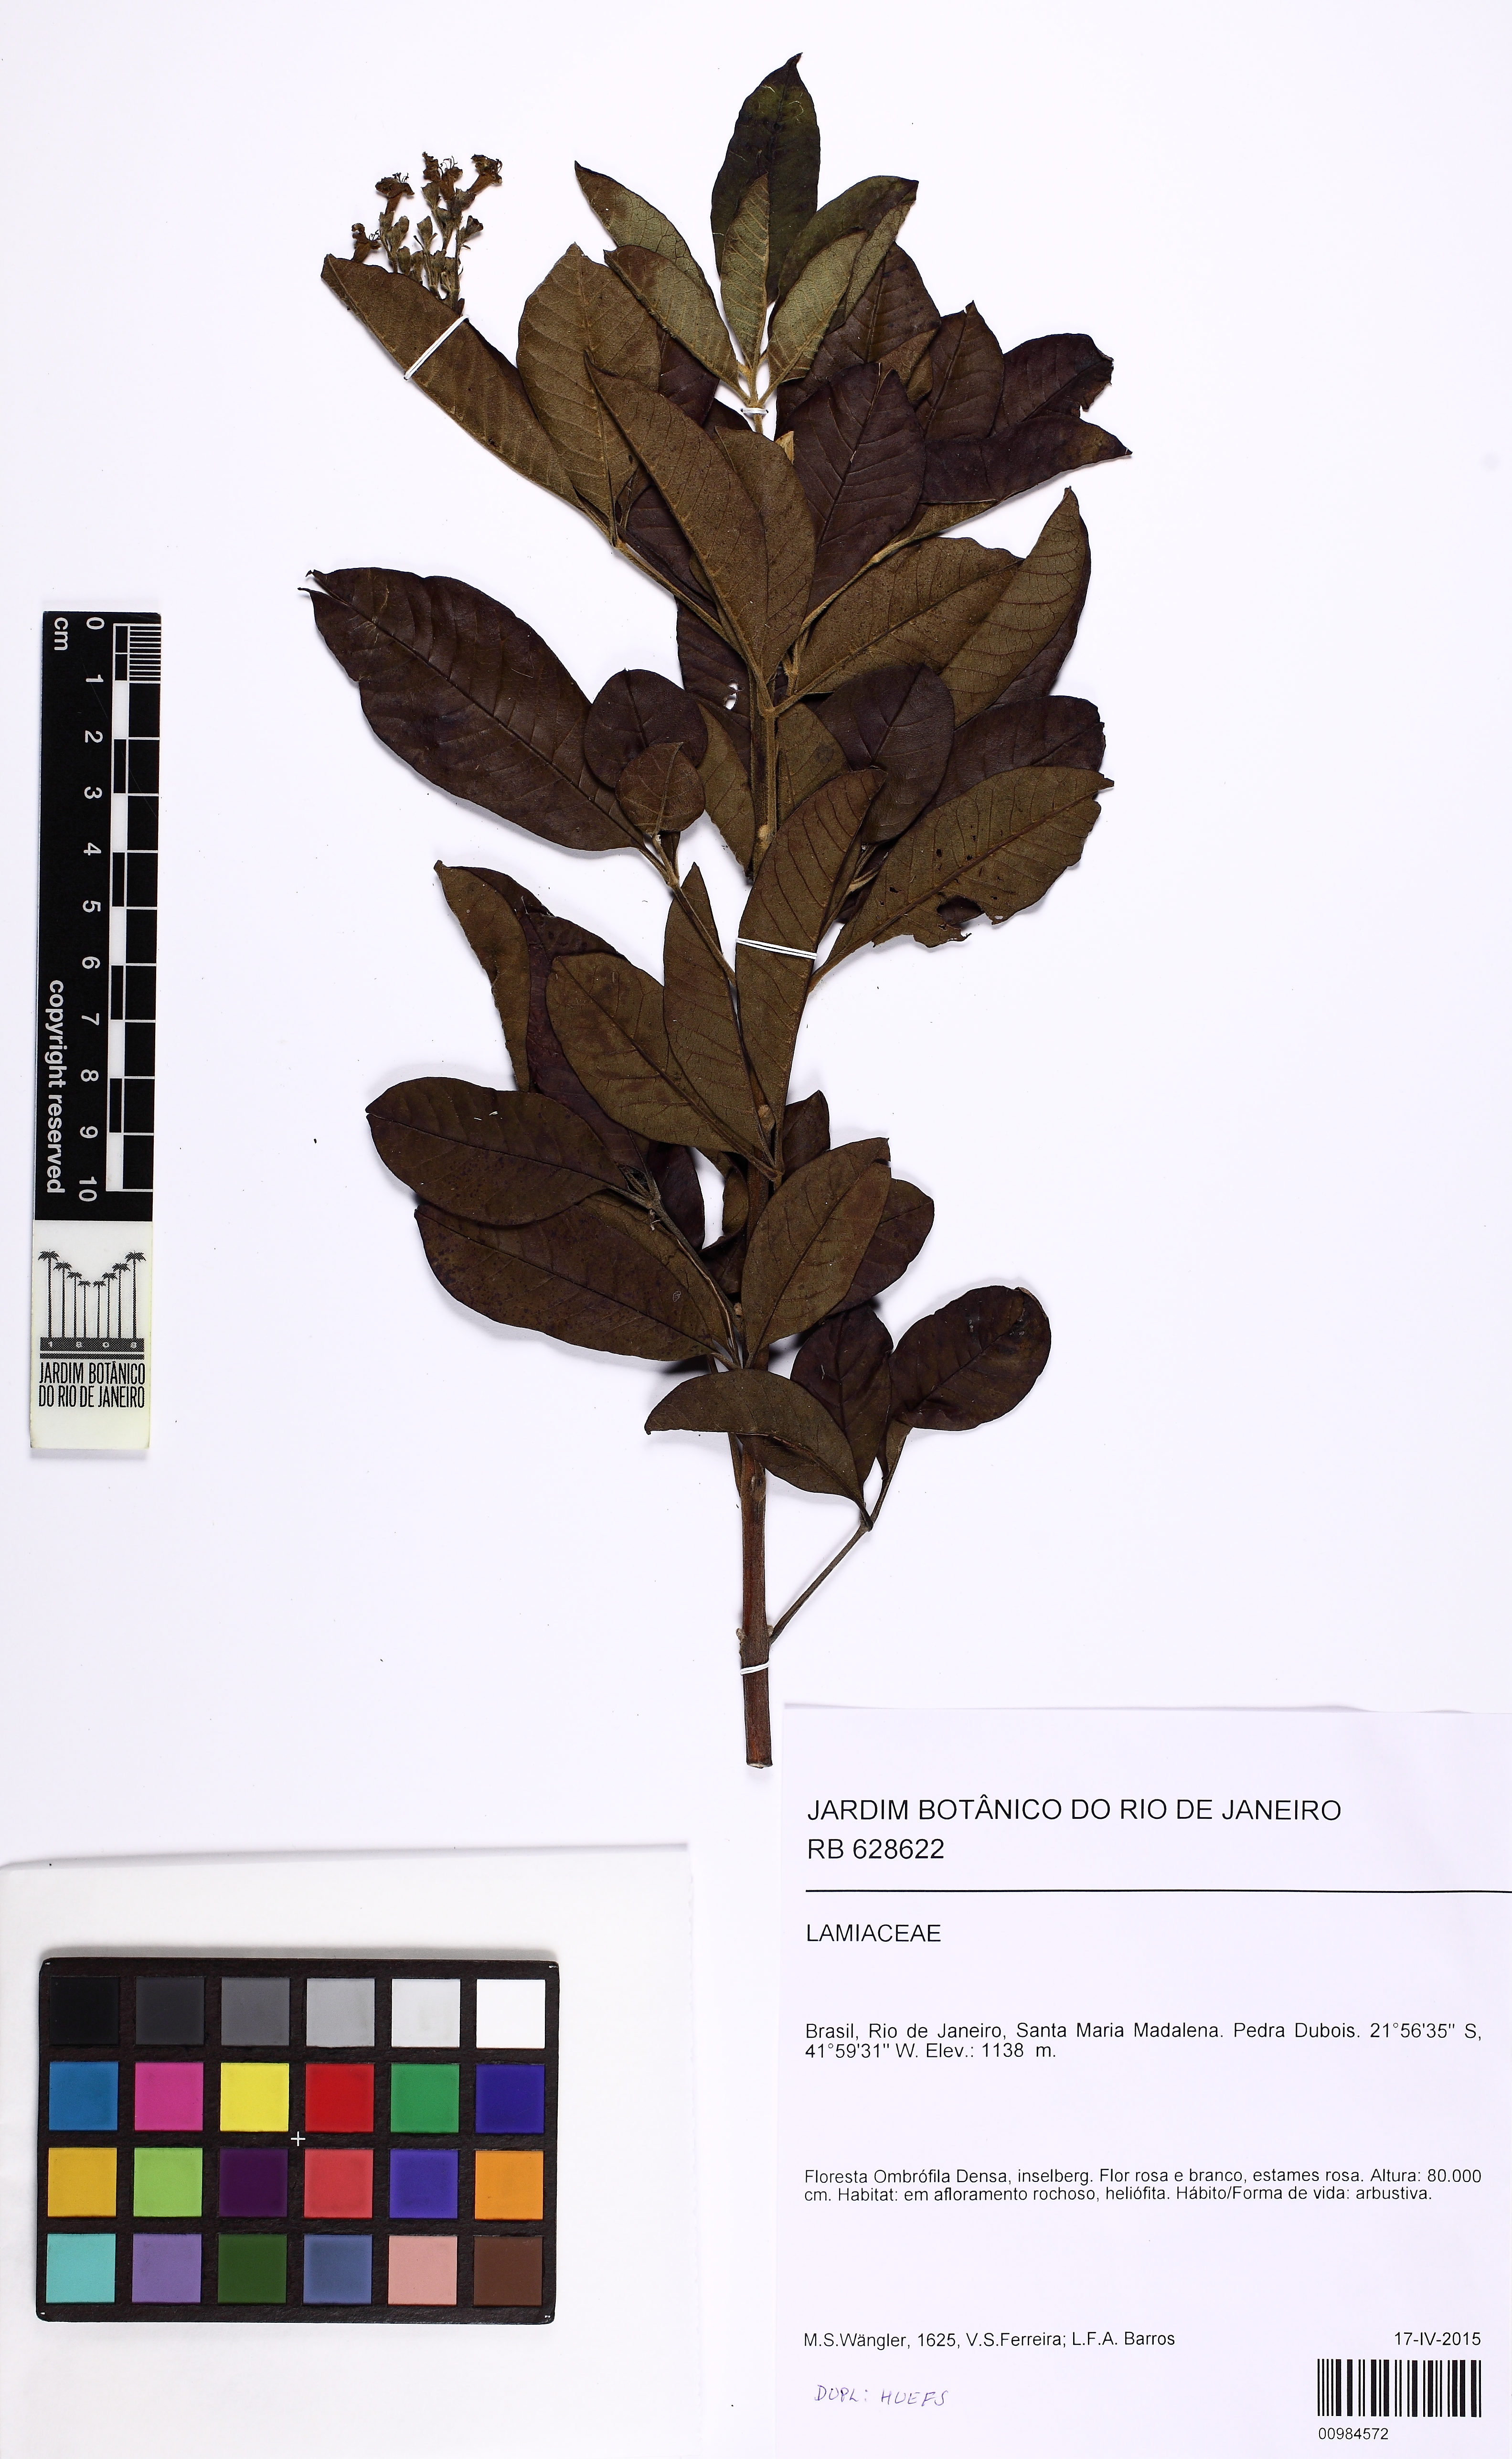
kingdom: Plantae
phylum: Tracheophyta
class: Magnoliopsida
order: Lamiales
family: Lamiaceae
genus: Vitex
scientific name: Vitex
